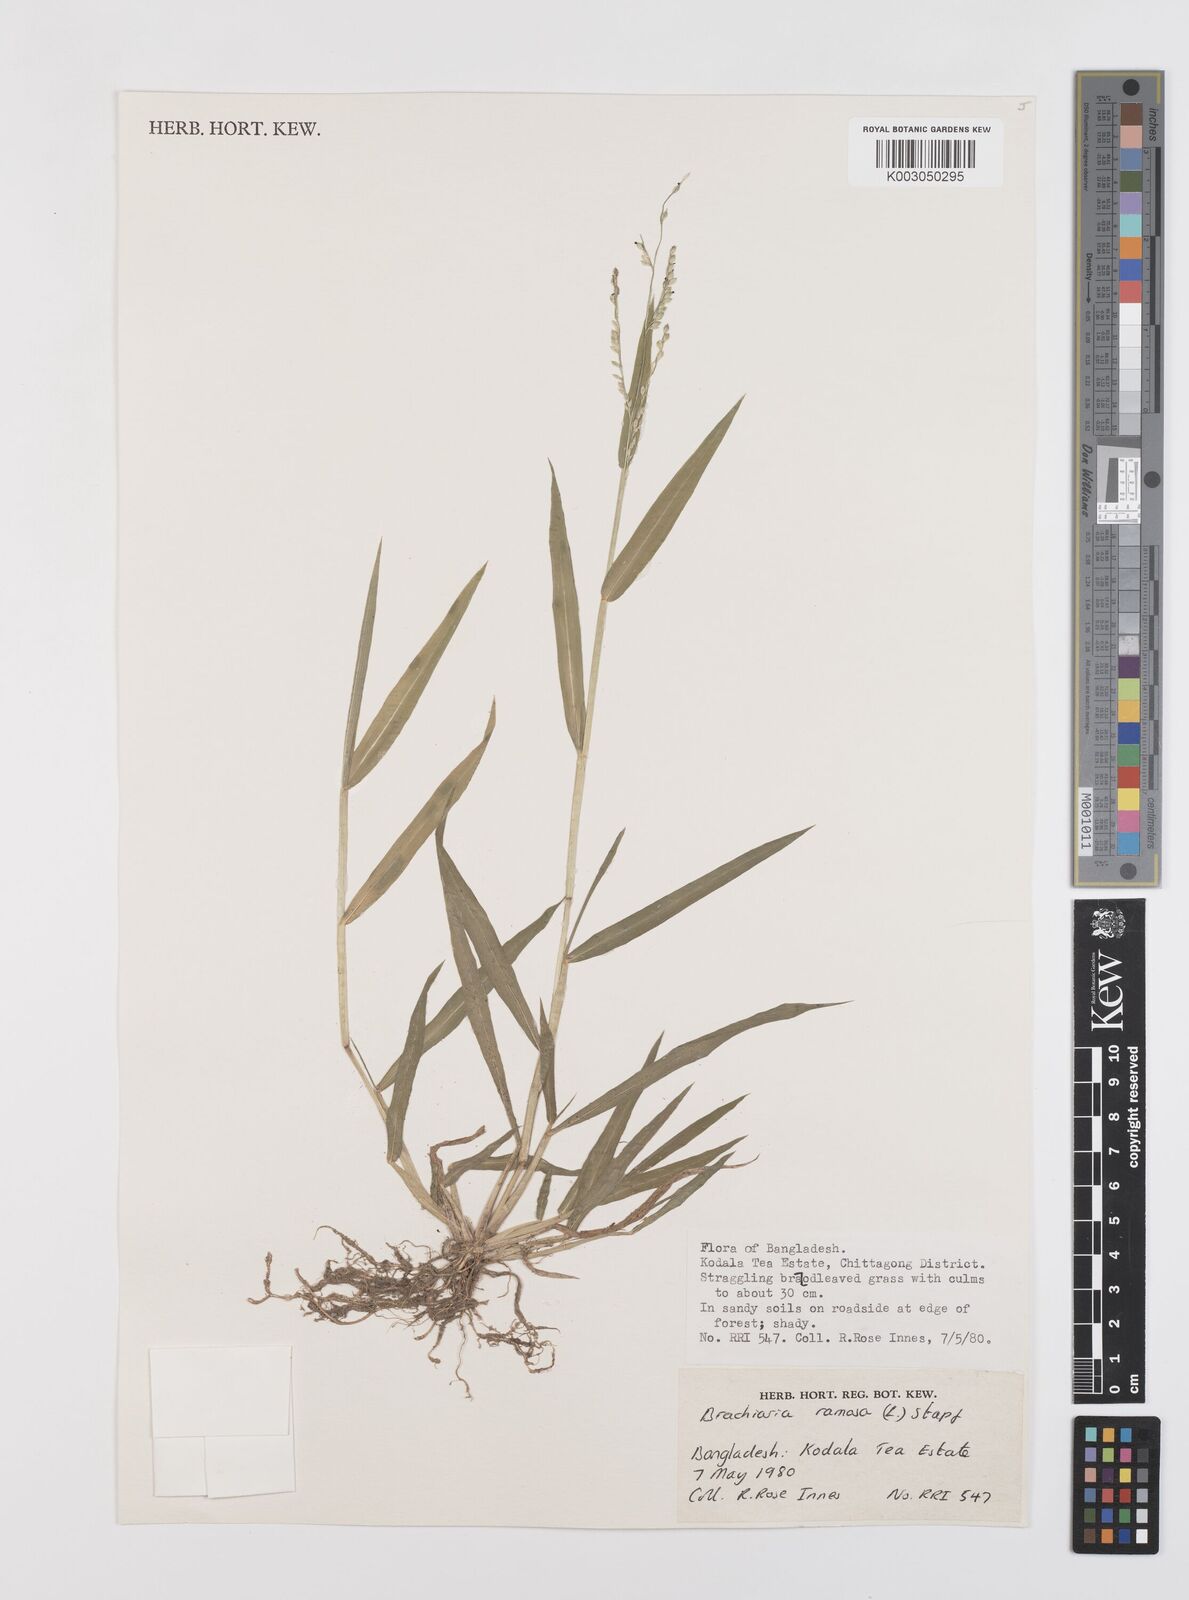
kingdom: Plantae
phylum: Tracheophyta
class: Liliopsida
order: Poales
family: Poaceae
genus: Urochloa
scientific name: Urochloa ramosa
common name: Browntop millet
